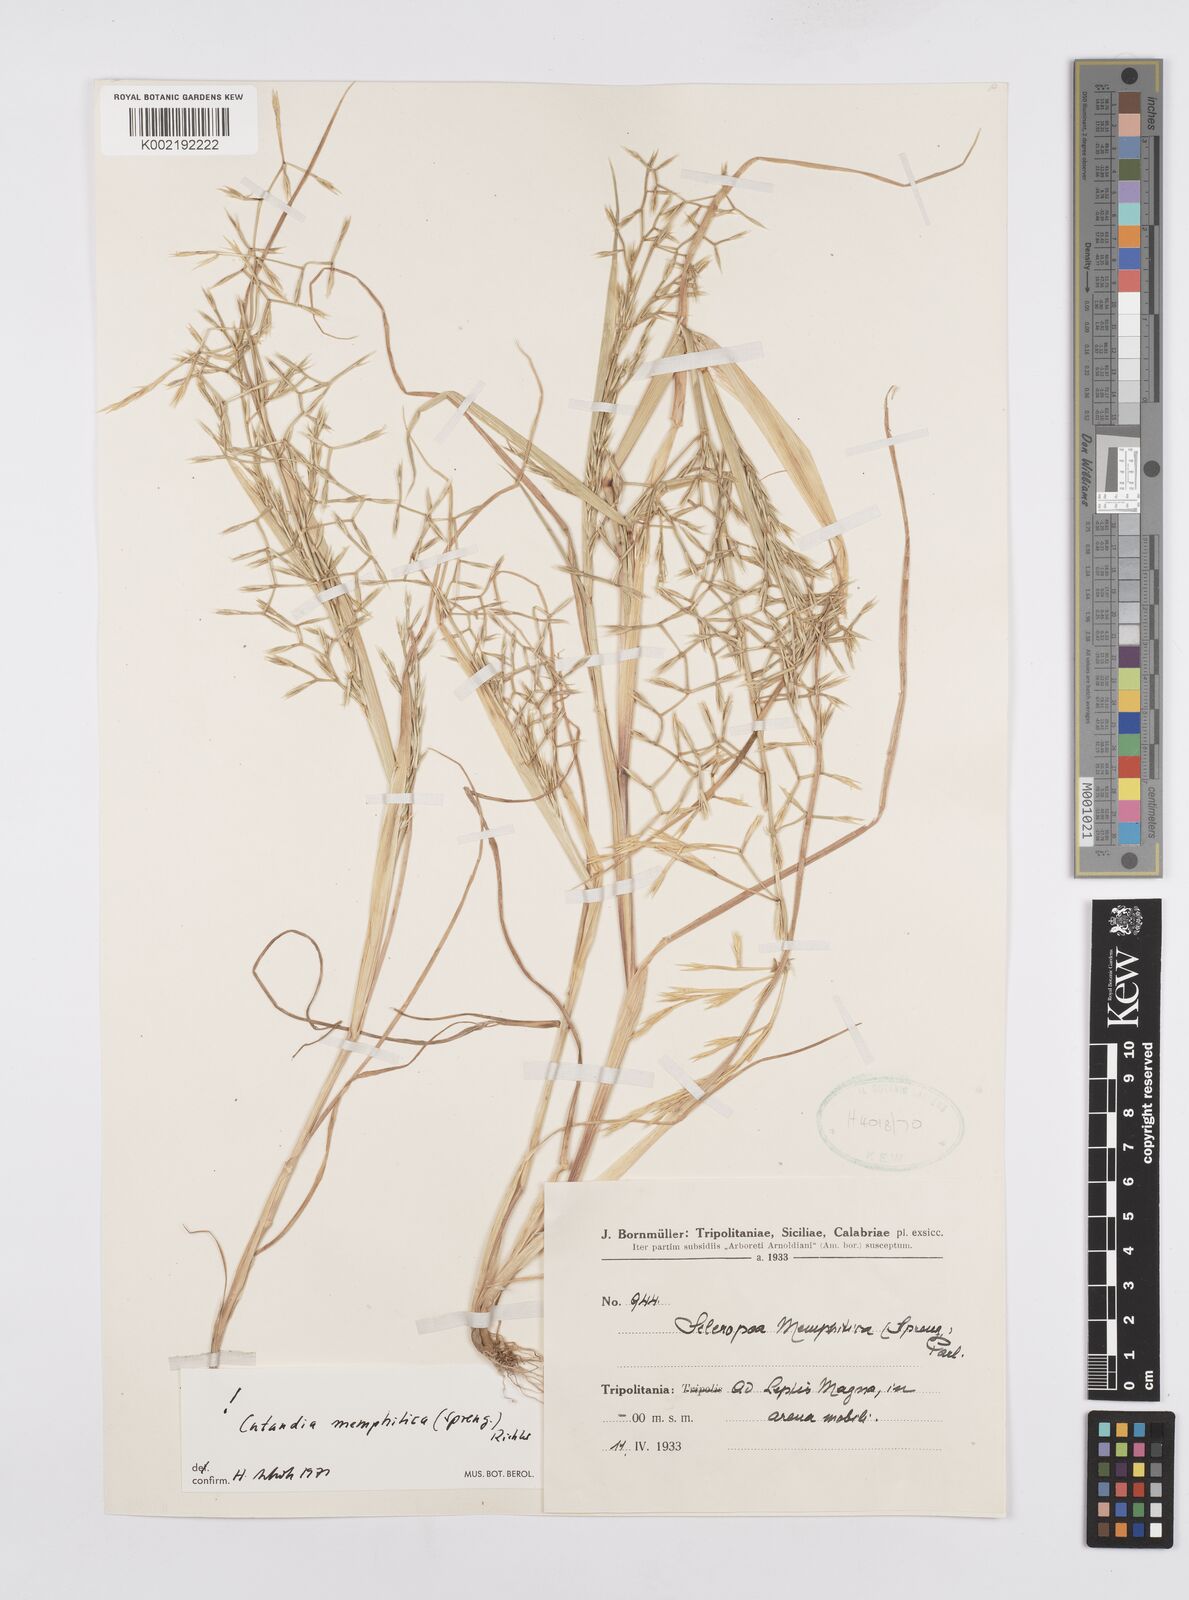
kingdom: Plantae
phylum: Tracheophyta
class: Liliopsida
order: Poales
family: Poaceae
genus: Cutandia
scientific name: Cutandia memphitica
